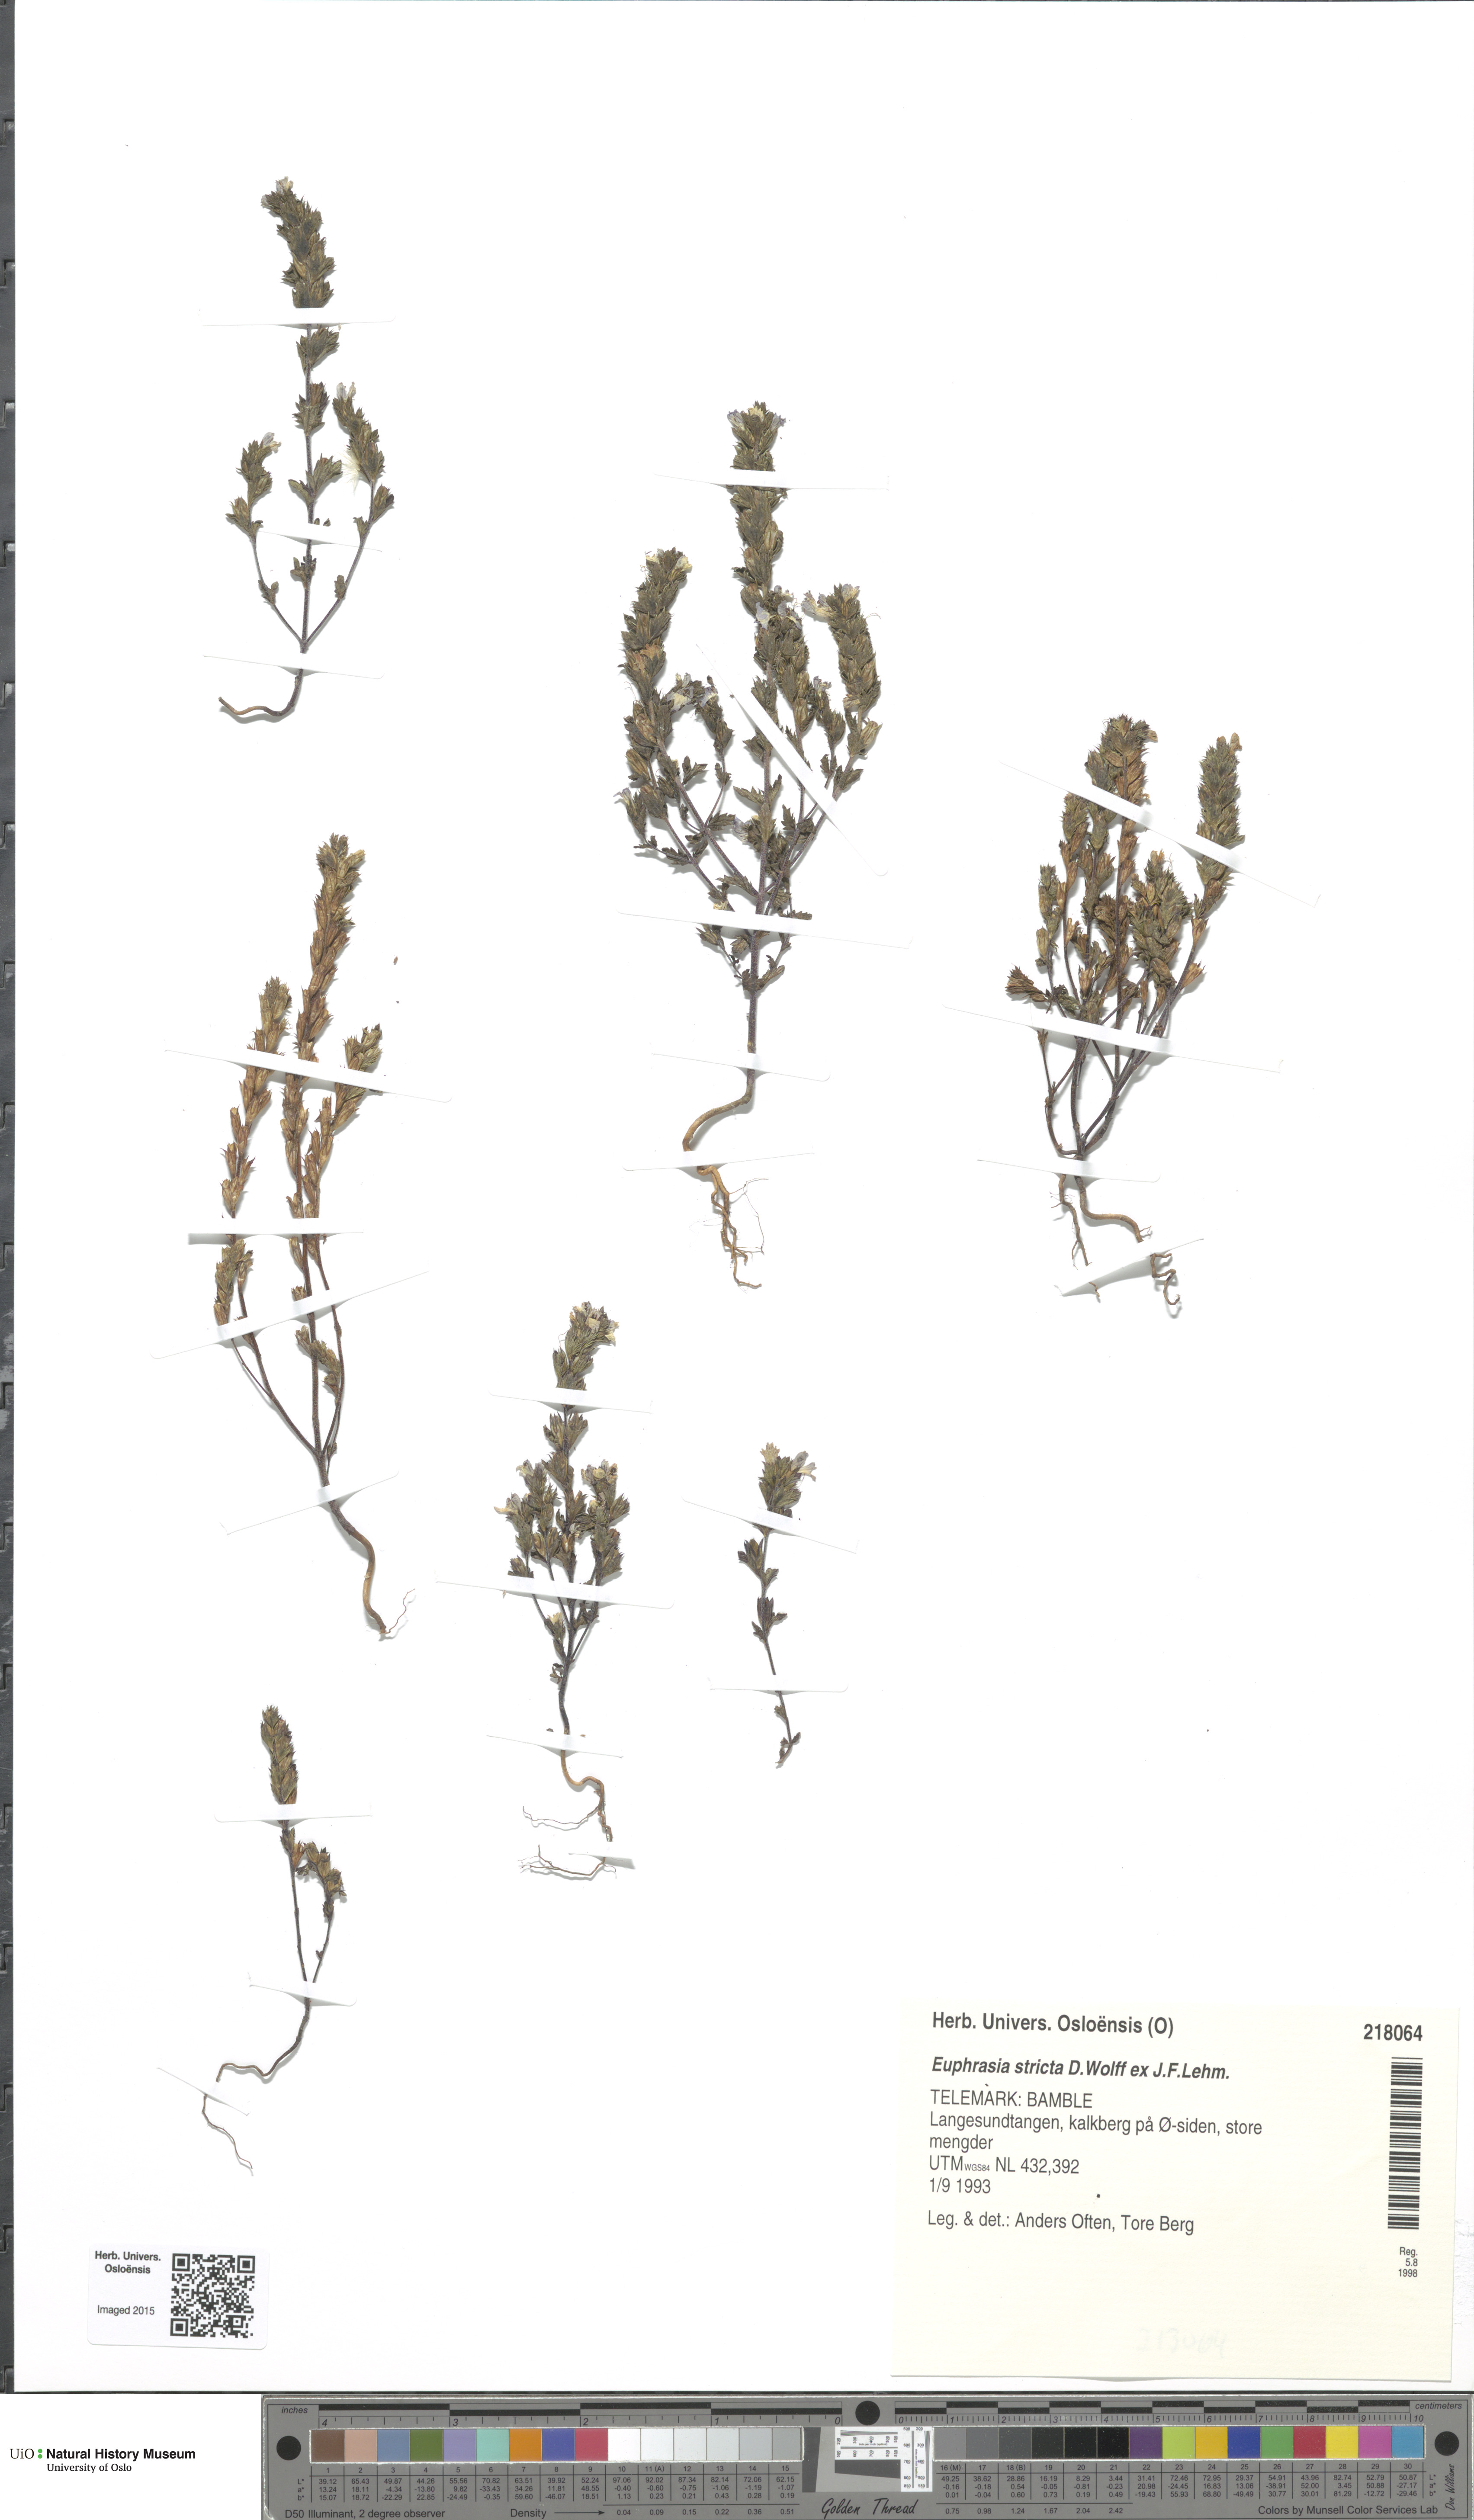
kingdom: Plantae
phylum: Tracheophyta
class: Magnoliopsida
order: Lamiales
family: Orobanchaceae
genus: Euphrasia
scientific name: Euphrasia stricta
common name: Drug eyebright
